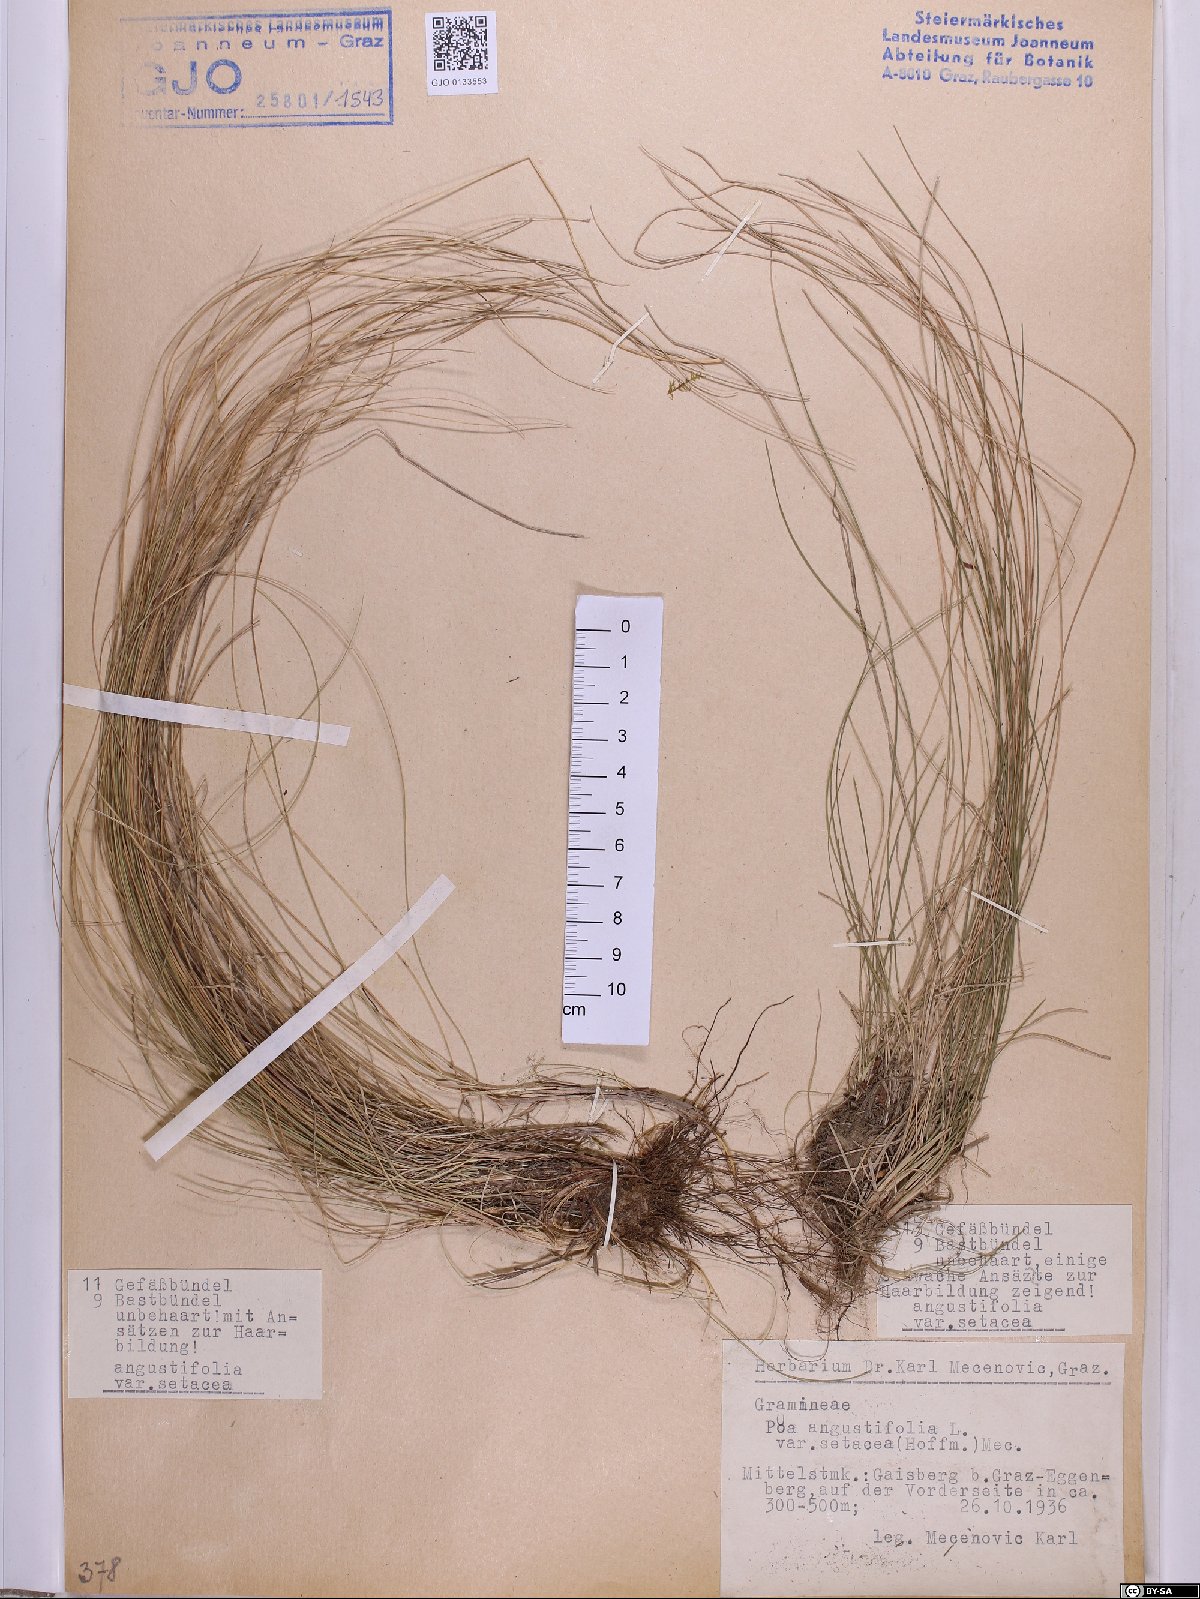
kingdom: Plantae
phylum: Tracheophyta
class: Liliopsida
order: Poales
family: Poaceae
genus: Poa
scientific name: Poa angustifolia
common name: Narrow-leaved meadow-grass
